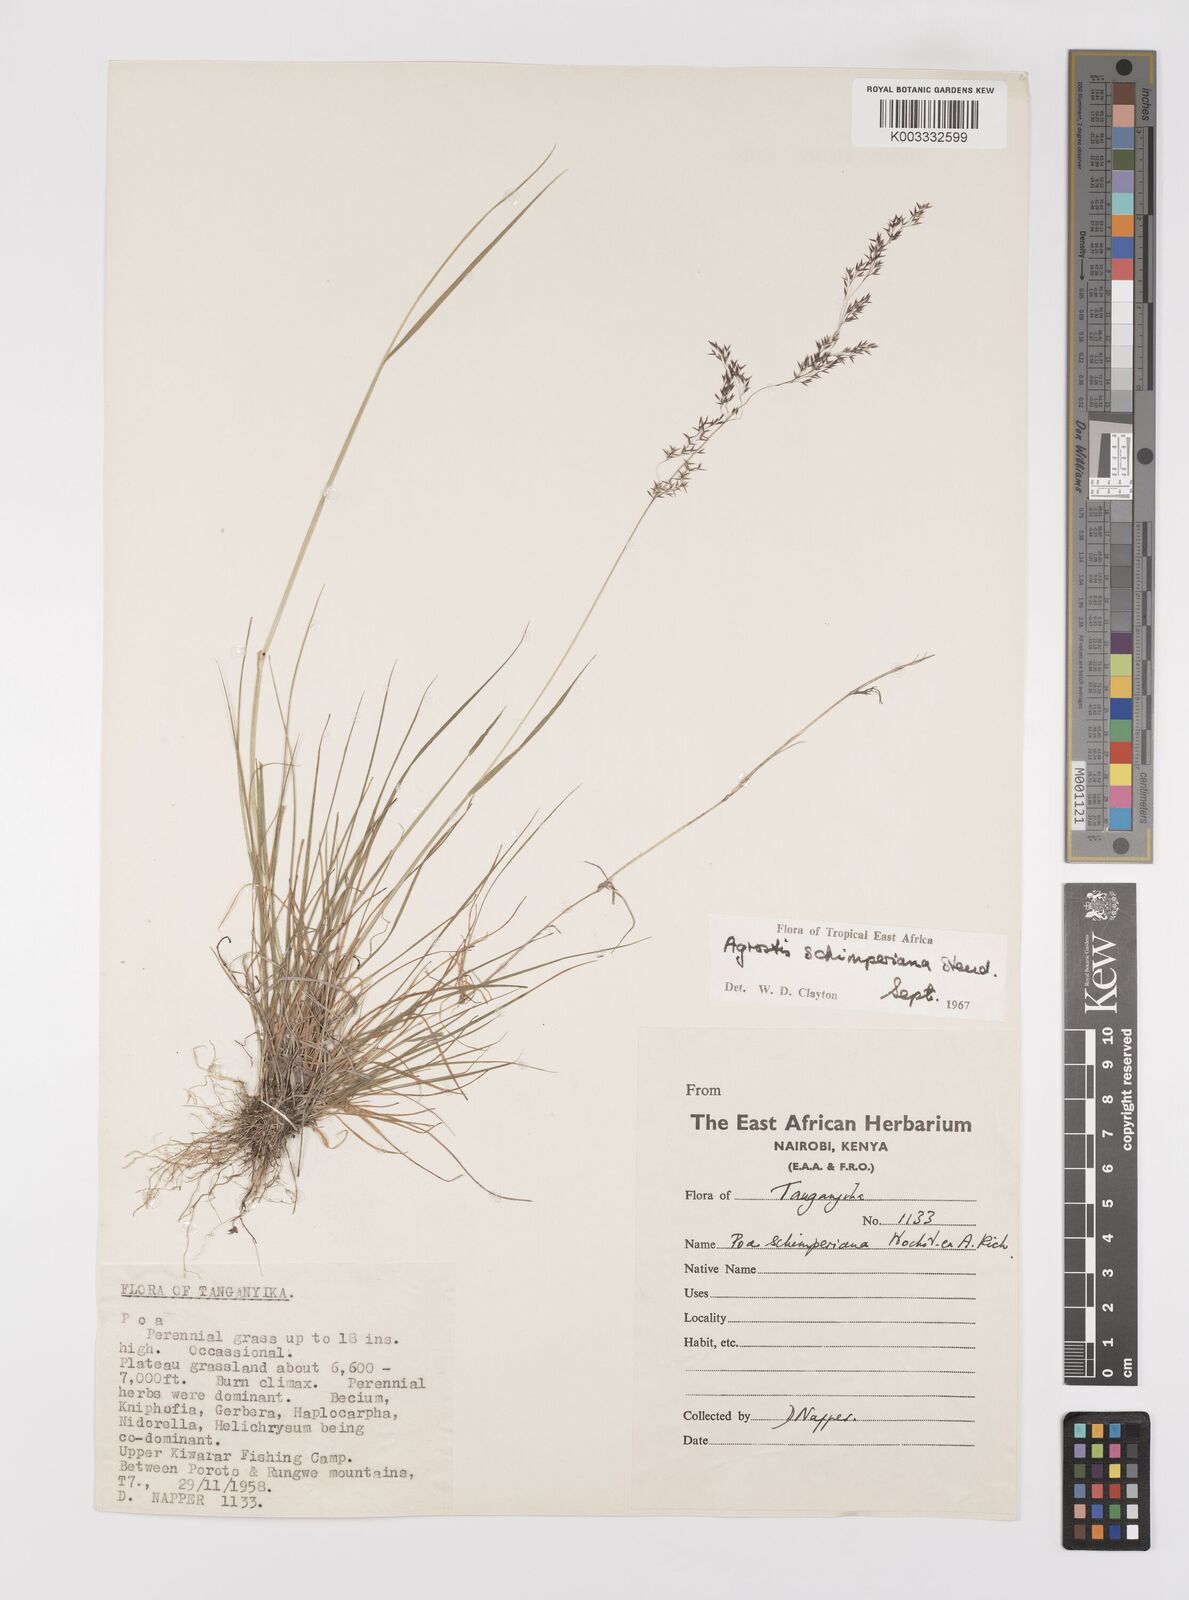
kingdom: Plantae
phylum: Tracheophyta
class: Liliopsida
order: Poales
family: Poaceae
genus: Polypogon
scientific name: Polypogon schimperianus
